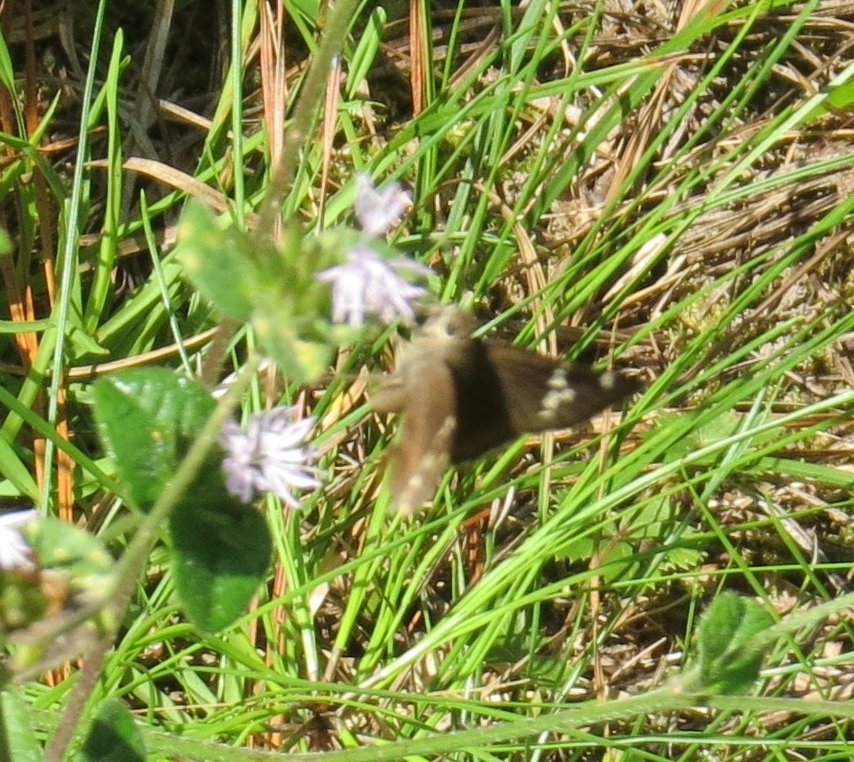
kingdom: Animalia
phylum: Arthropoda
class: Insecta
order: Lepidoptera
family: Hesperiidae
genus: Autochton
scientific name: Autochton
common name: Southern Cloudywing
